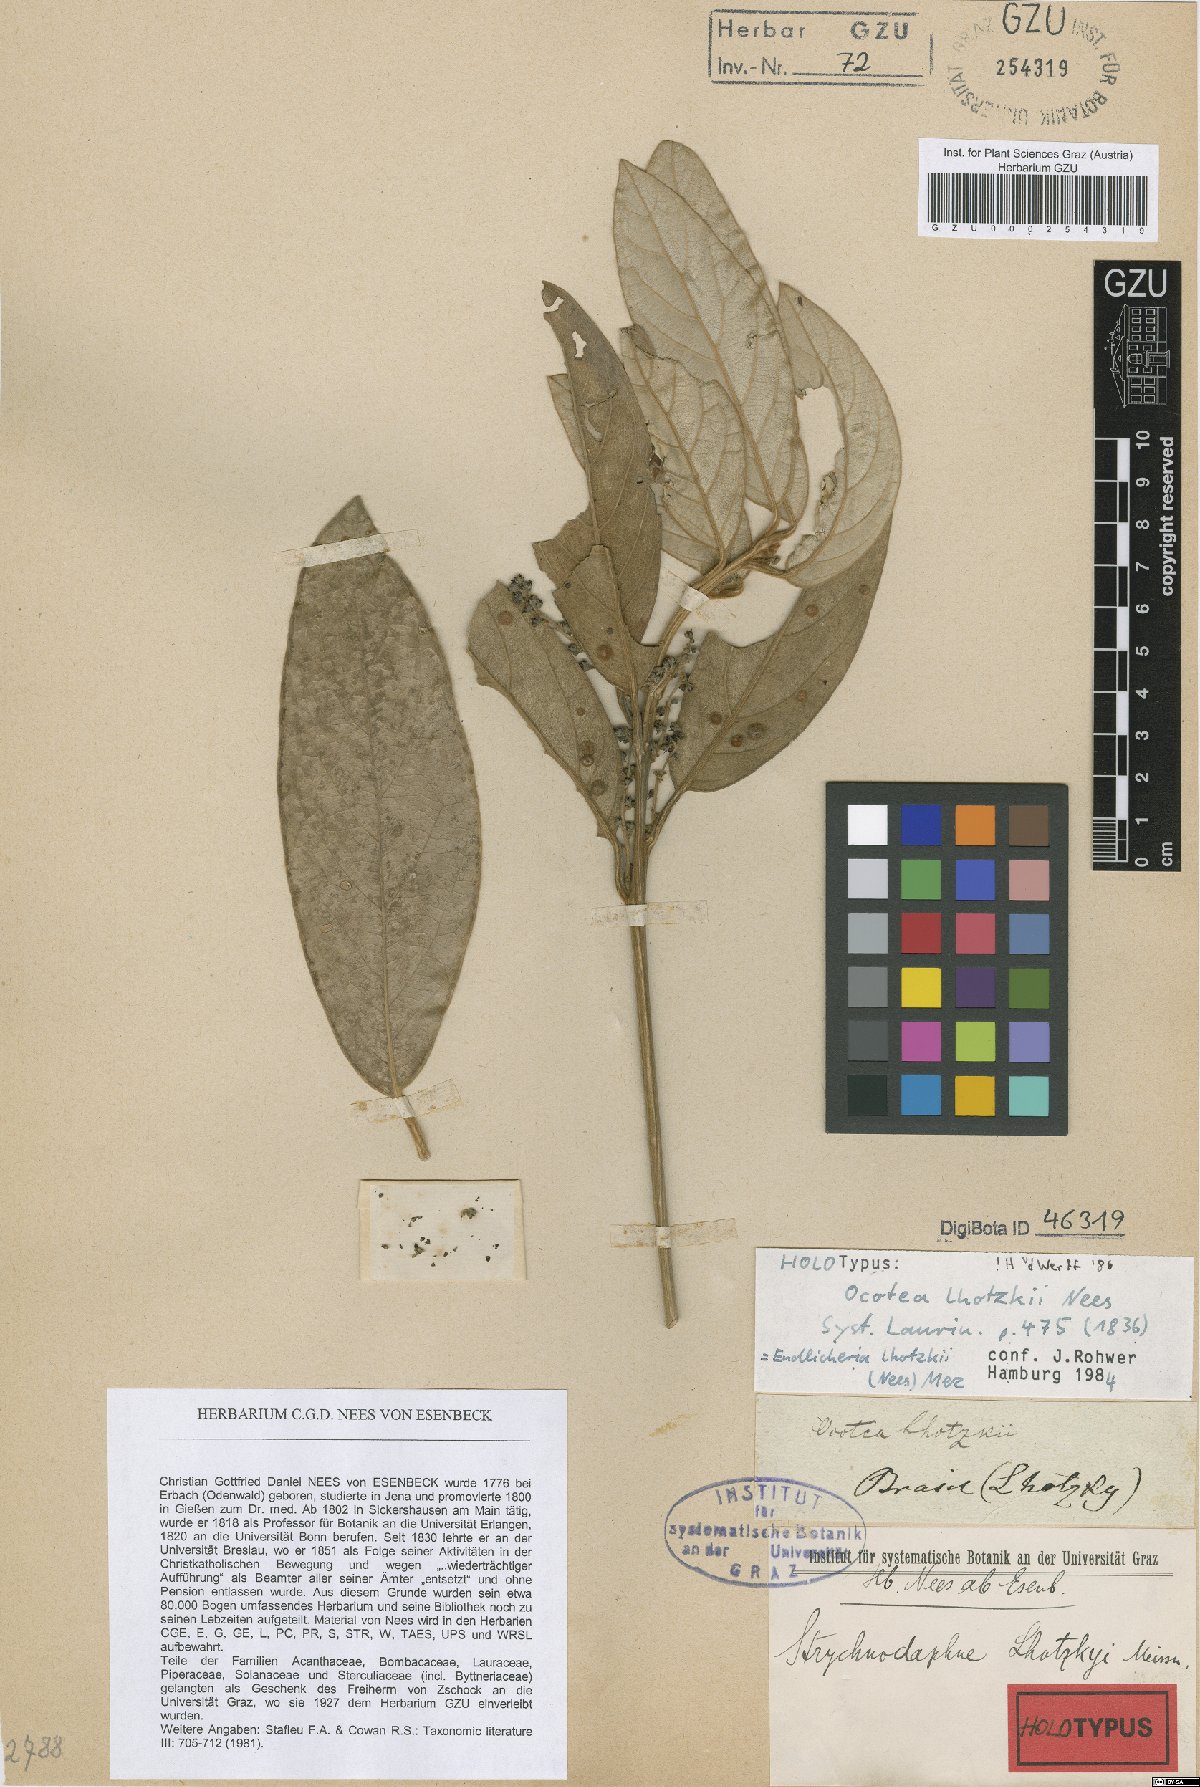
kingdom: Plantae
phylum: Tracheophyta
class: Magnoliopsida
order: Laurales
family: Lauraceae
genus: Endlicheria
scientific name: Endlicheria lhotzkyi
